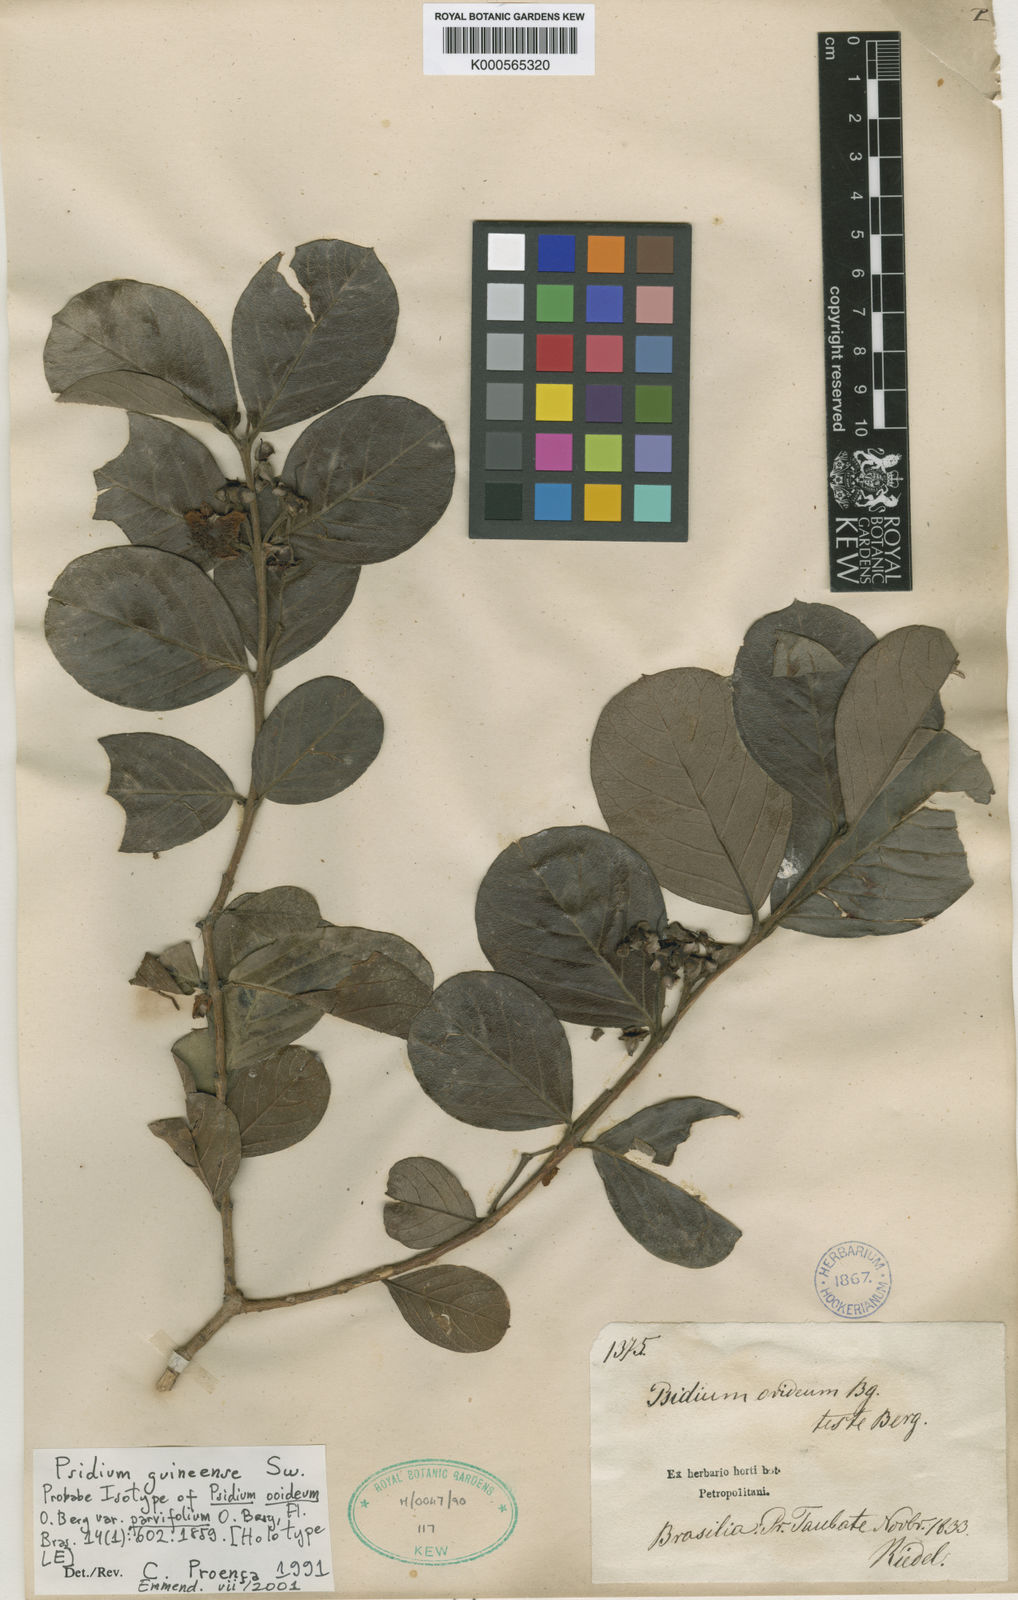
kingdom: Plantae
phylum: Tracheophyta
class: Magnoliopsida
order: Myrtales
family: Myrtaceae
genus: Psidium
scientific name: Psidium guineense
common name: Brazilian guava
